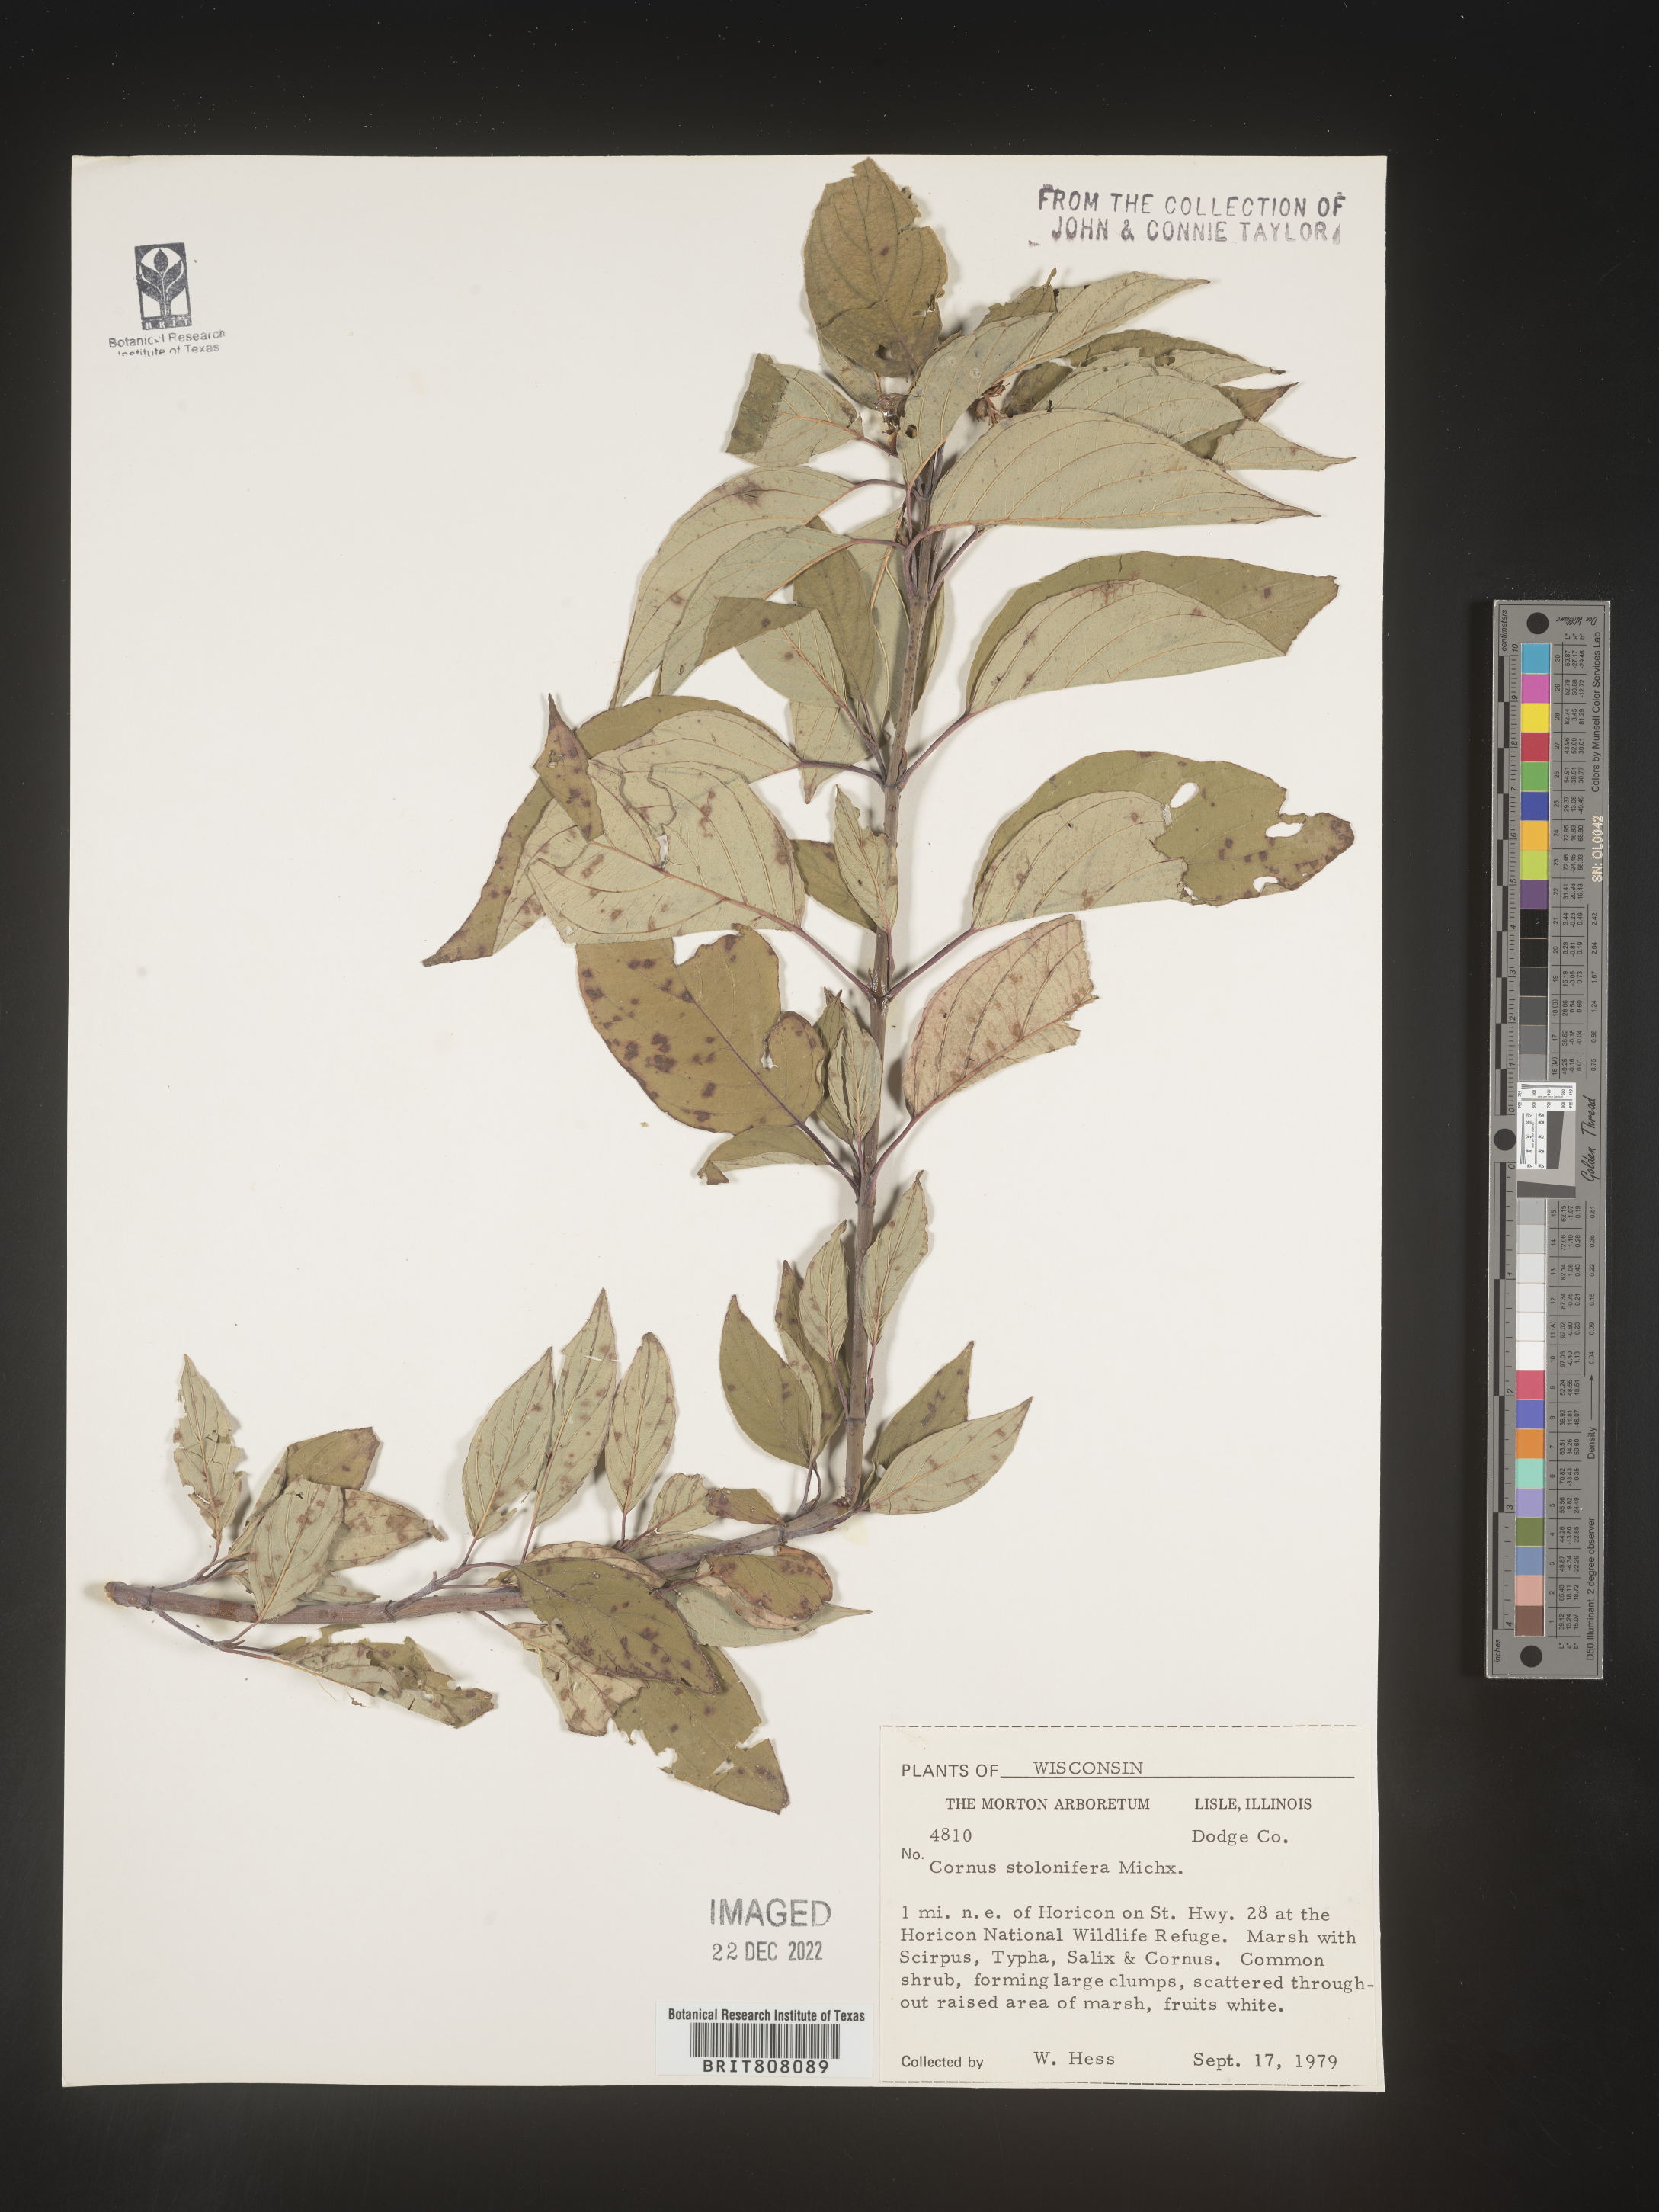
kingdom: Plantae
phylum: Tracheophyta
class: Magnoliopsida
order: Cornales
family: Cornaceae
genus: Cornus
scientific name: Cornus sericea
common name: Red-osier dogwood
